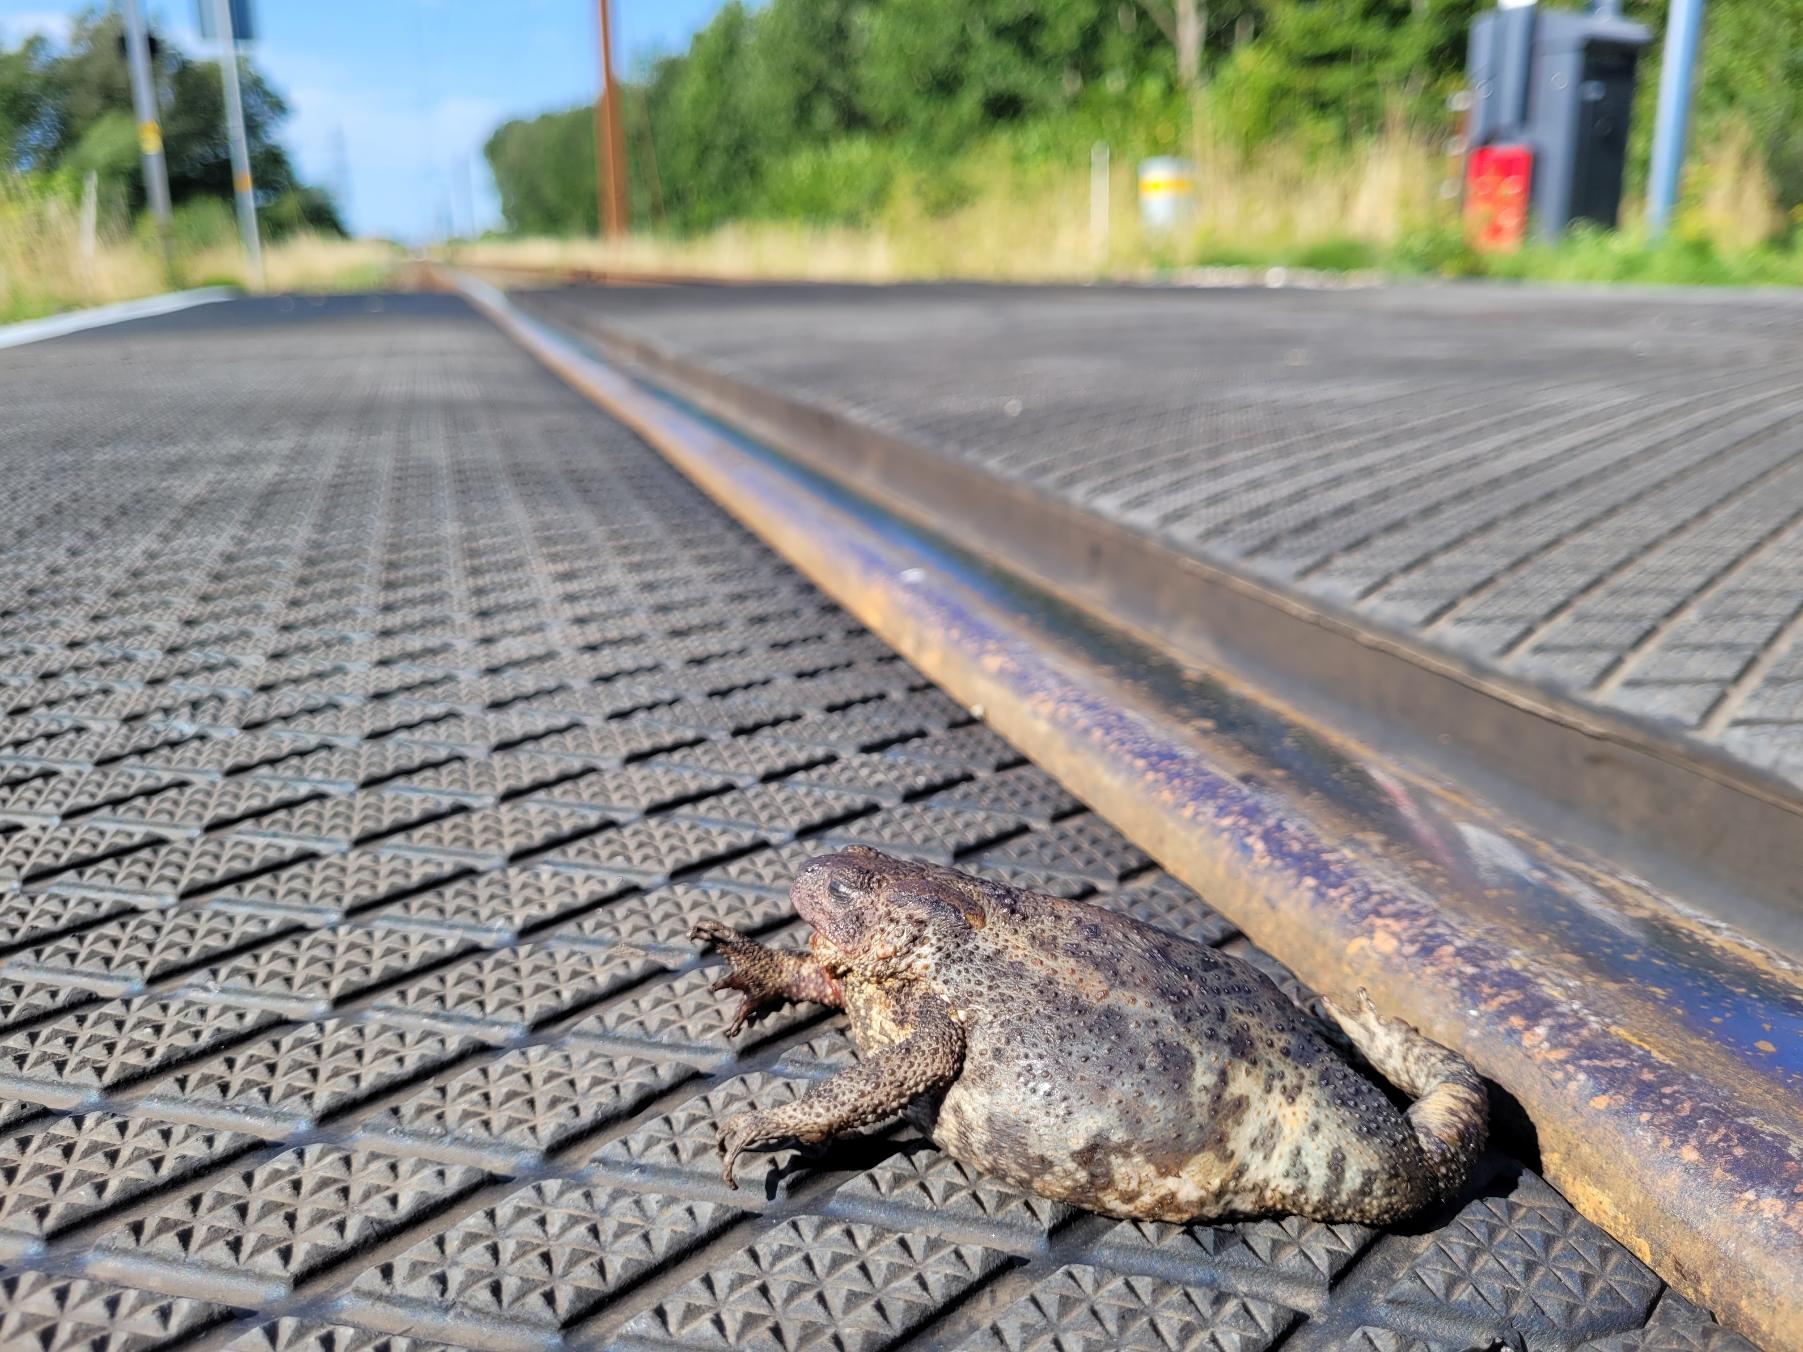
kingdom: Animalia
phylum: Chordata
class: Amphibia
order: Anura
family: Bufonidae
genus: Bufo
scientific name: Bufo bufo
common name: Skrubtudse
